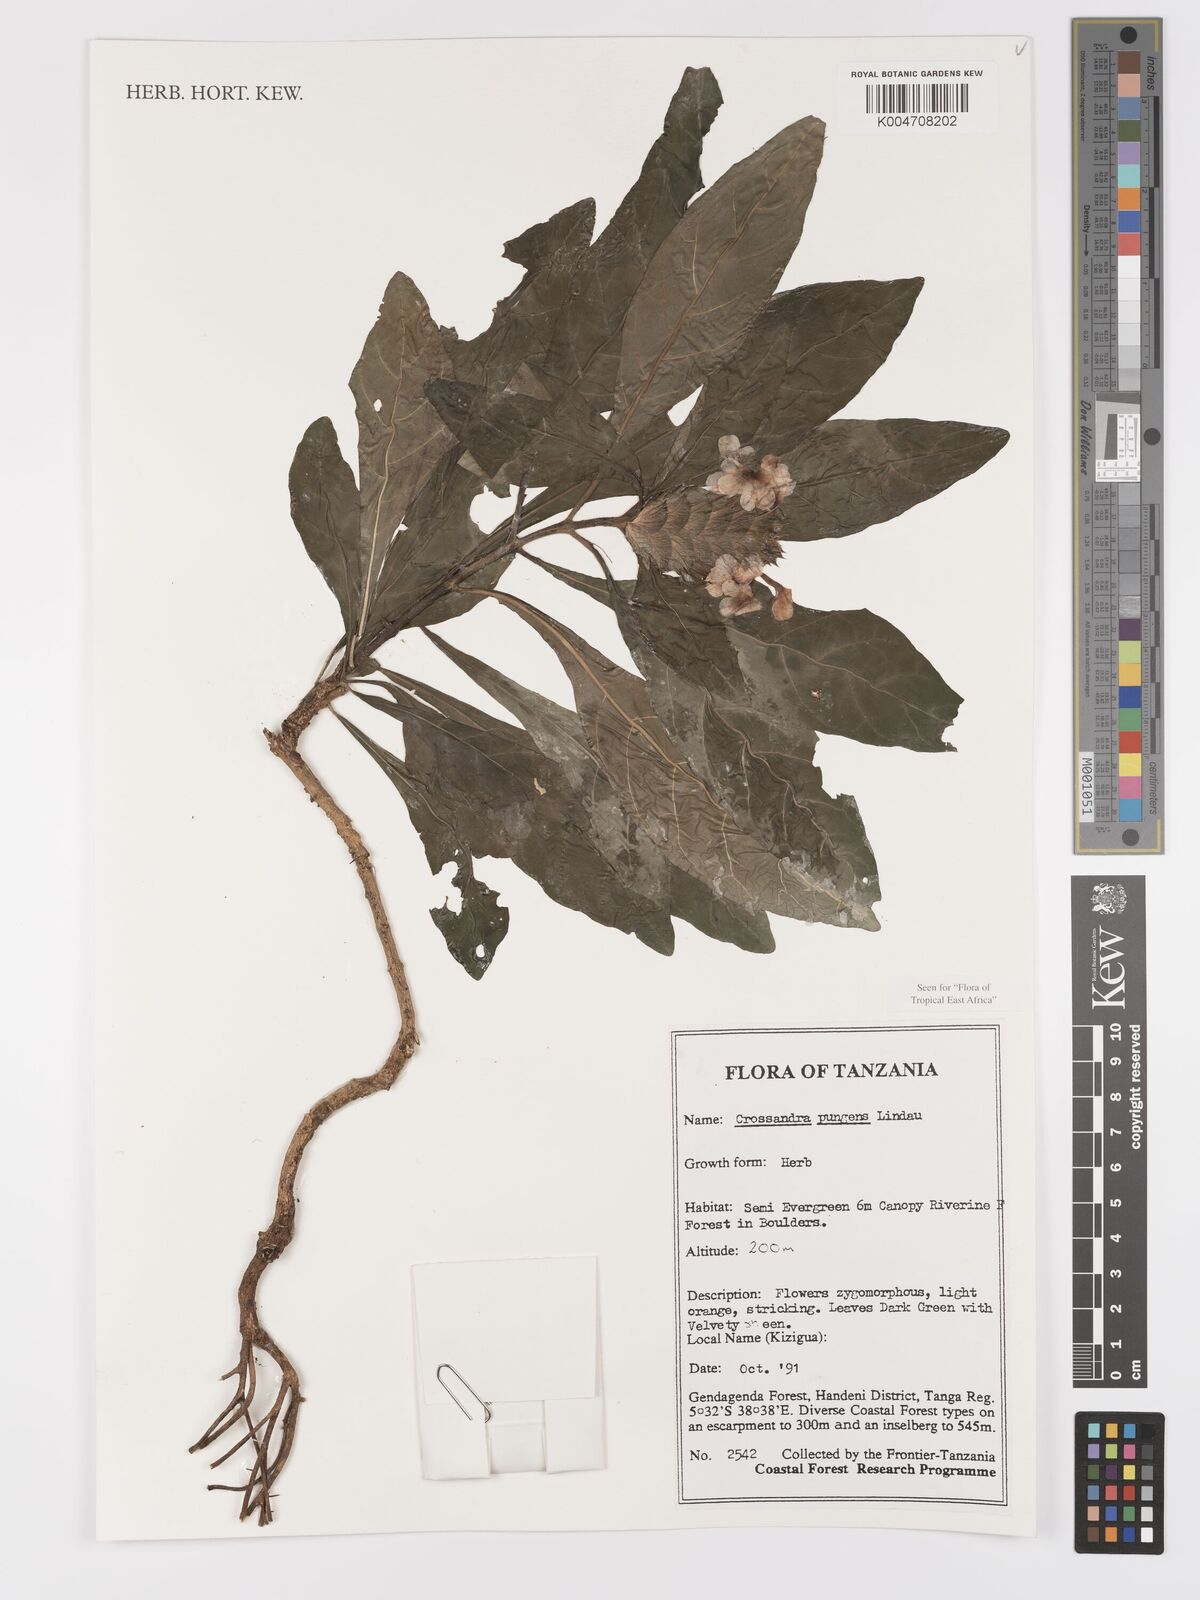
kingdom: Plantae
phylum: Tracheophyta
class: Magnoliopsida
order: Lamiales
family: Acanthaceae
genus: Crossandra
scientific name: Crossandra pungens
